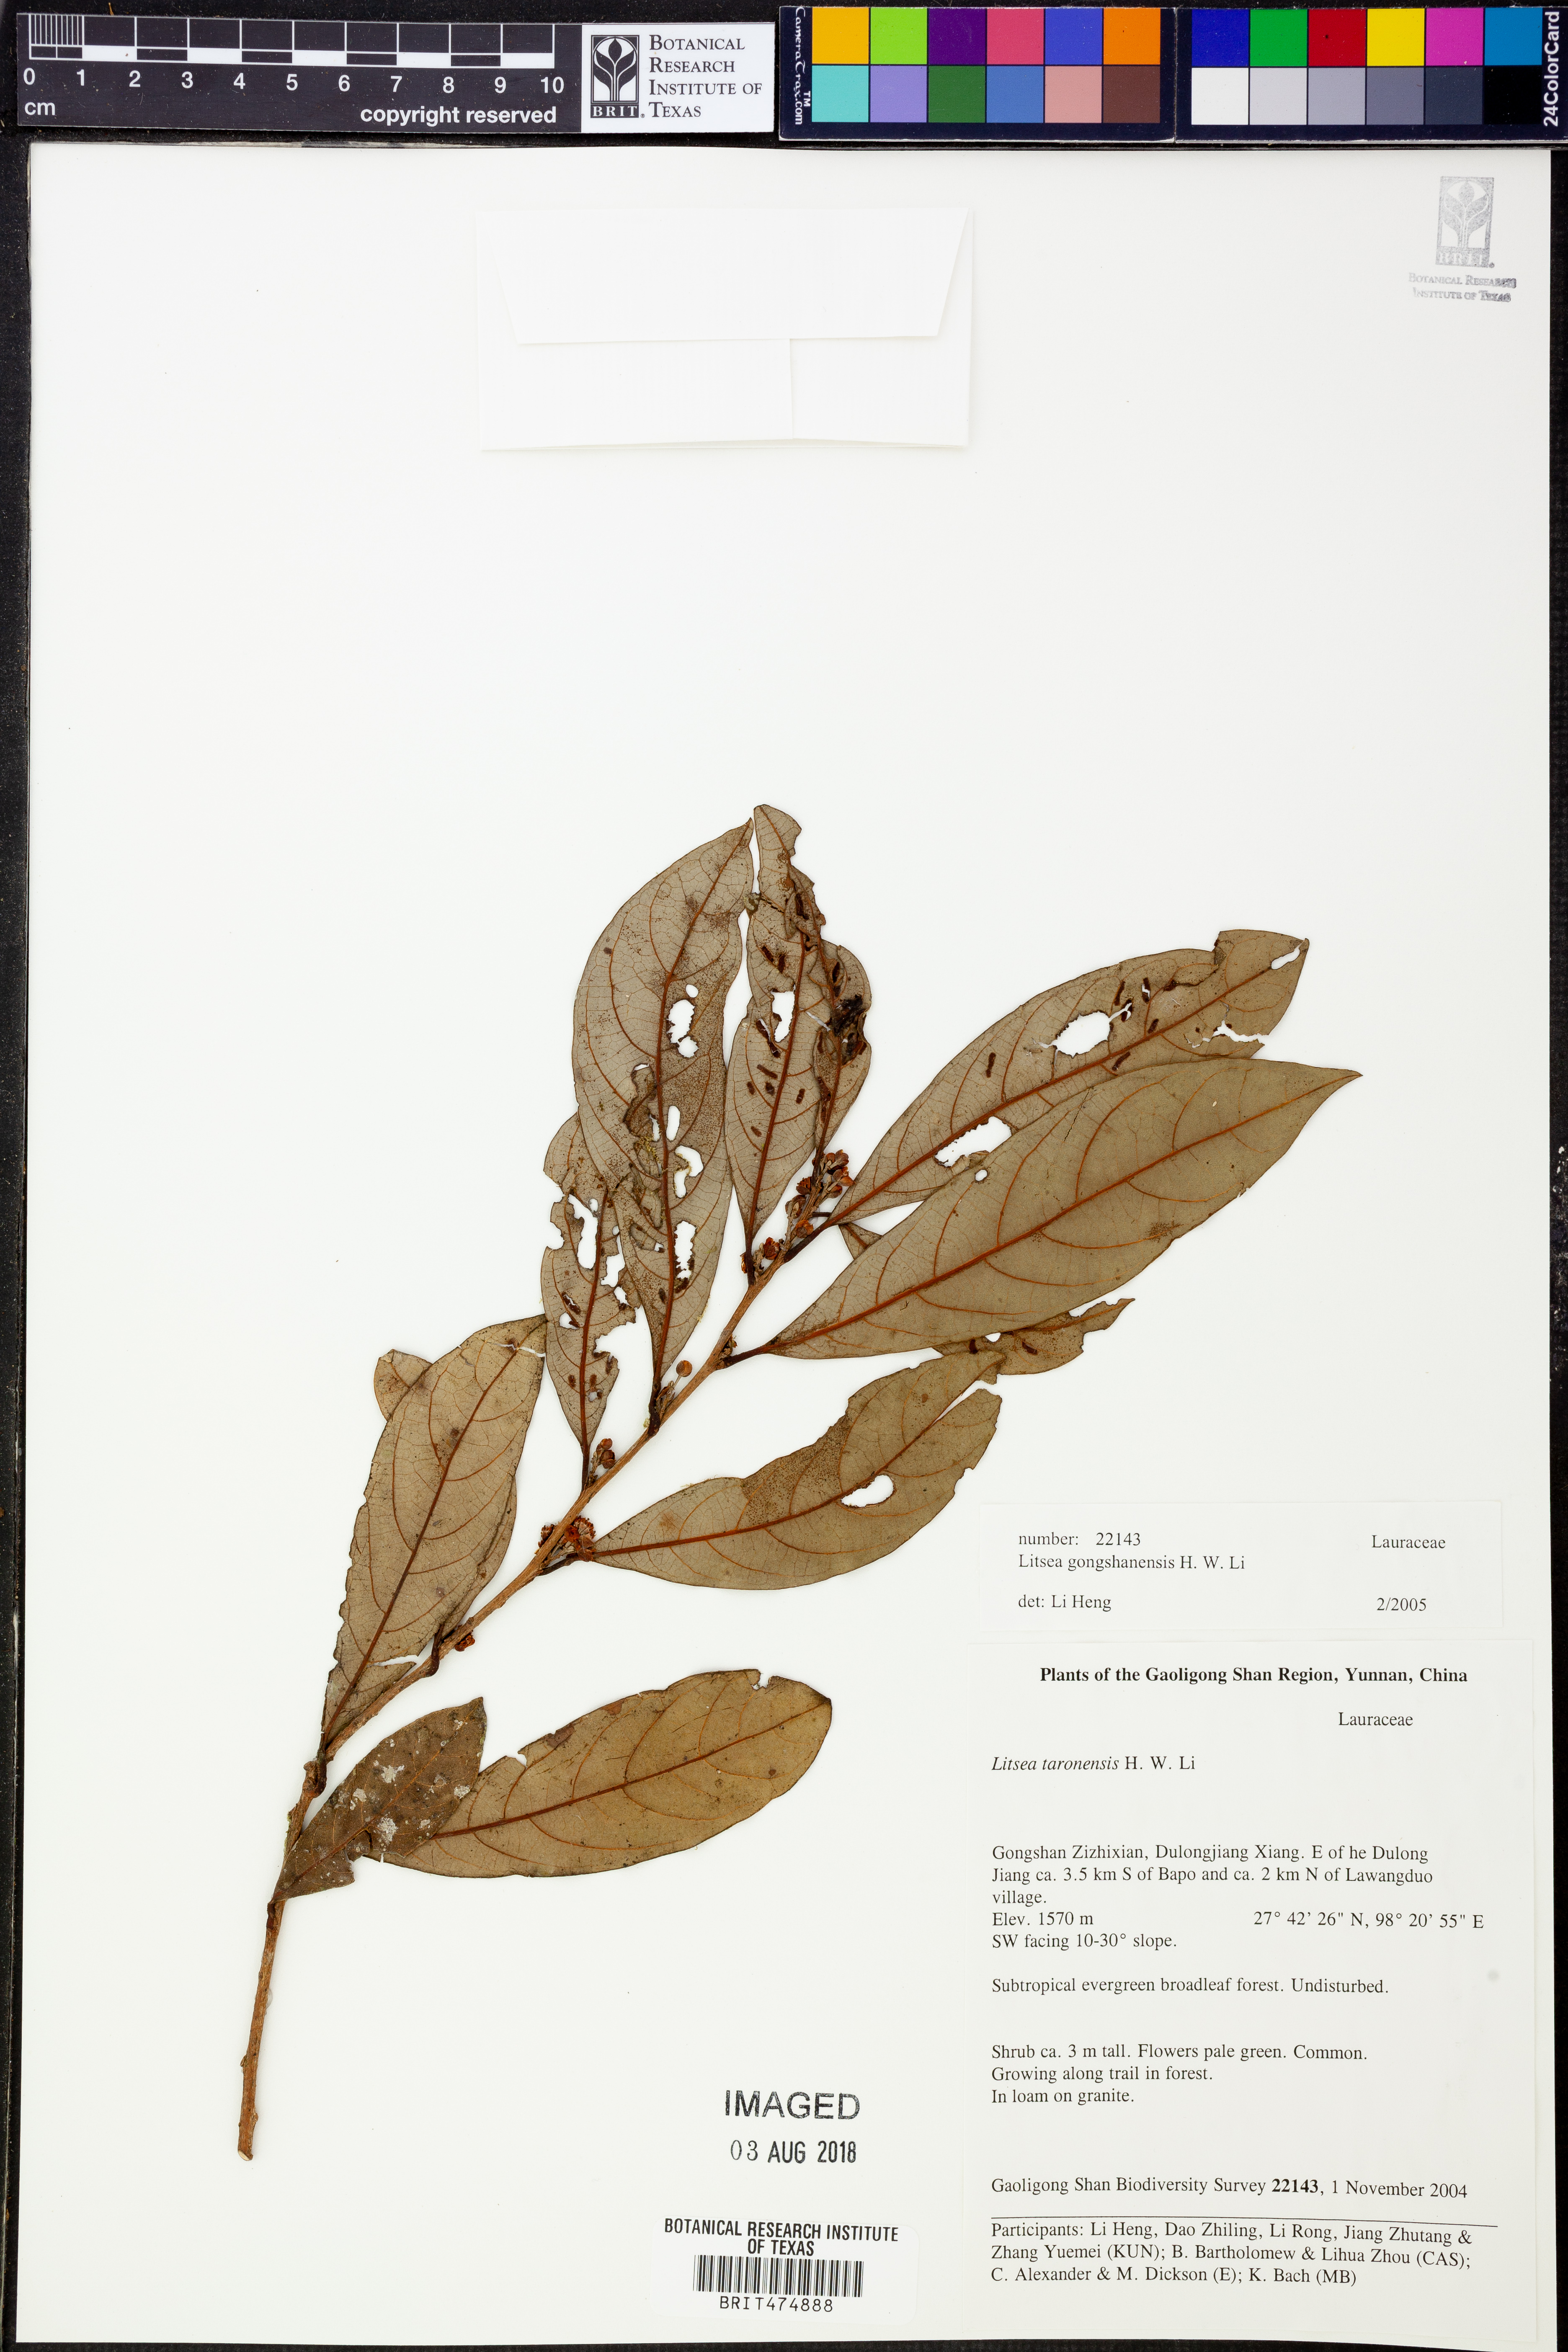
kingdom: Plantae
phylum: Tracheophyta
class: Magnoliopsida
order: Laurales
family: Lauraceae
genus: Litsea
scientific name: Litsea gongshanensis
